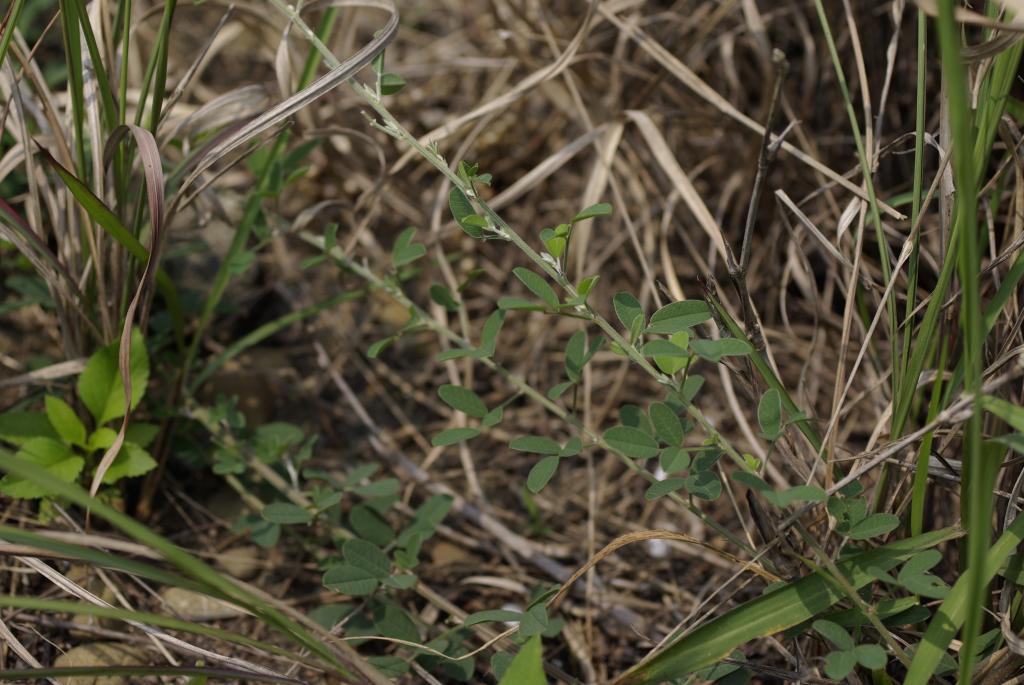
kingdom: Plantae
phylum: Tracheophyta
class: Magnoliopsida
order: Fabales
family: Fabaceae
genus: Lespedeza
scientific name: Lespedeza daurica
